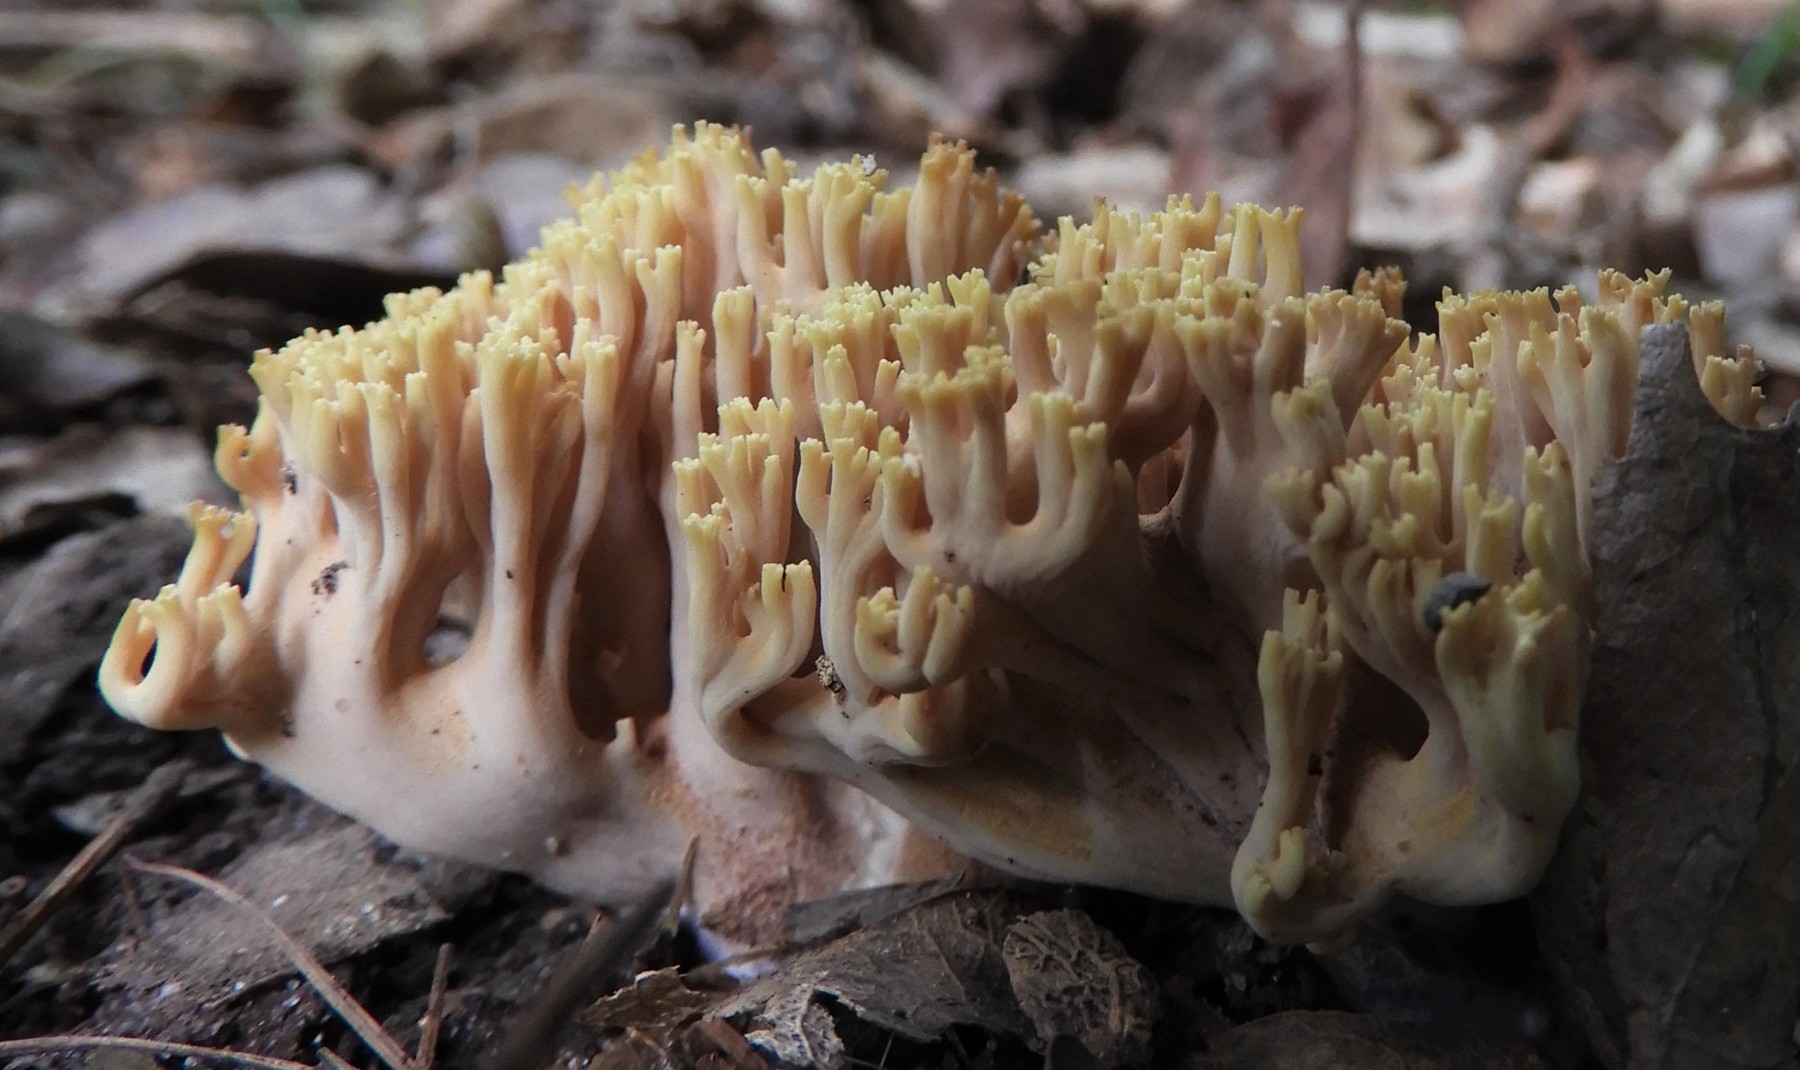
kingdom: Fungi
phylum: Basidiomycota
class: Agaricomycetes
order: Gomphales
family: Gomphaceae
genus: Ramaria
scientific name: Ramaria
